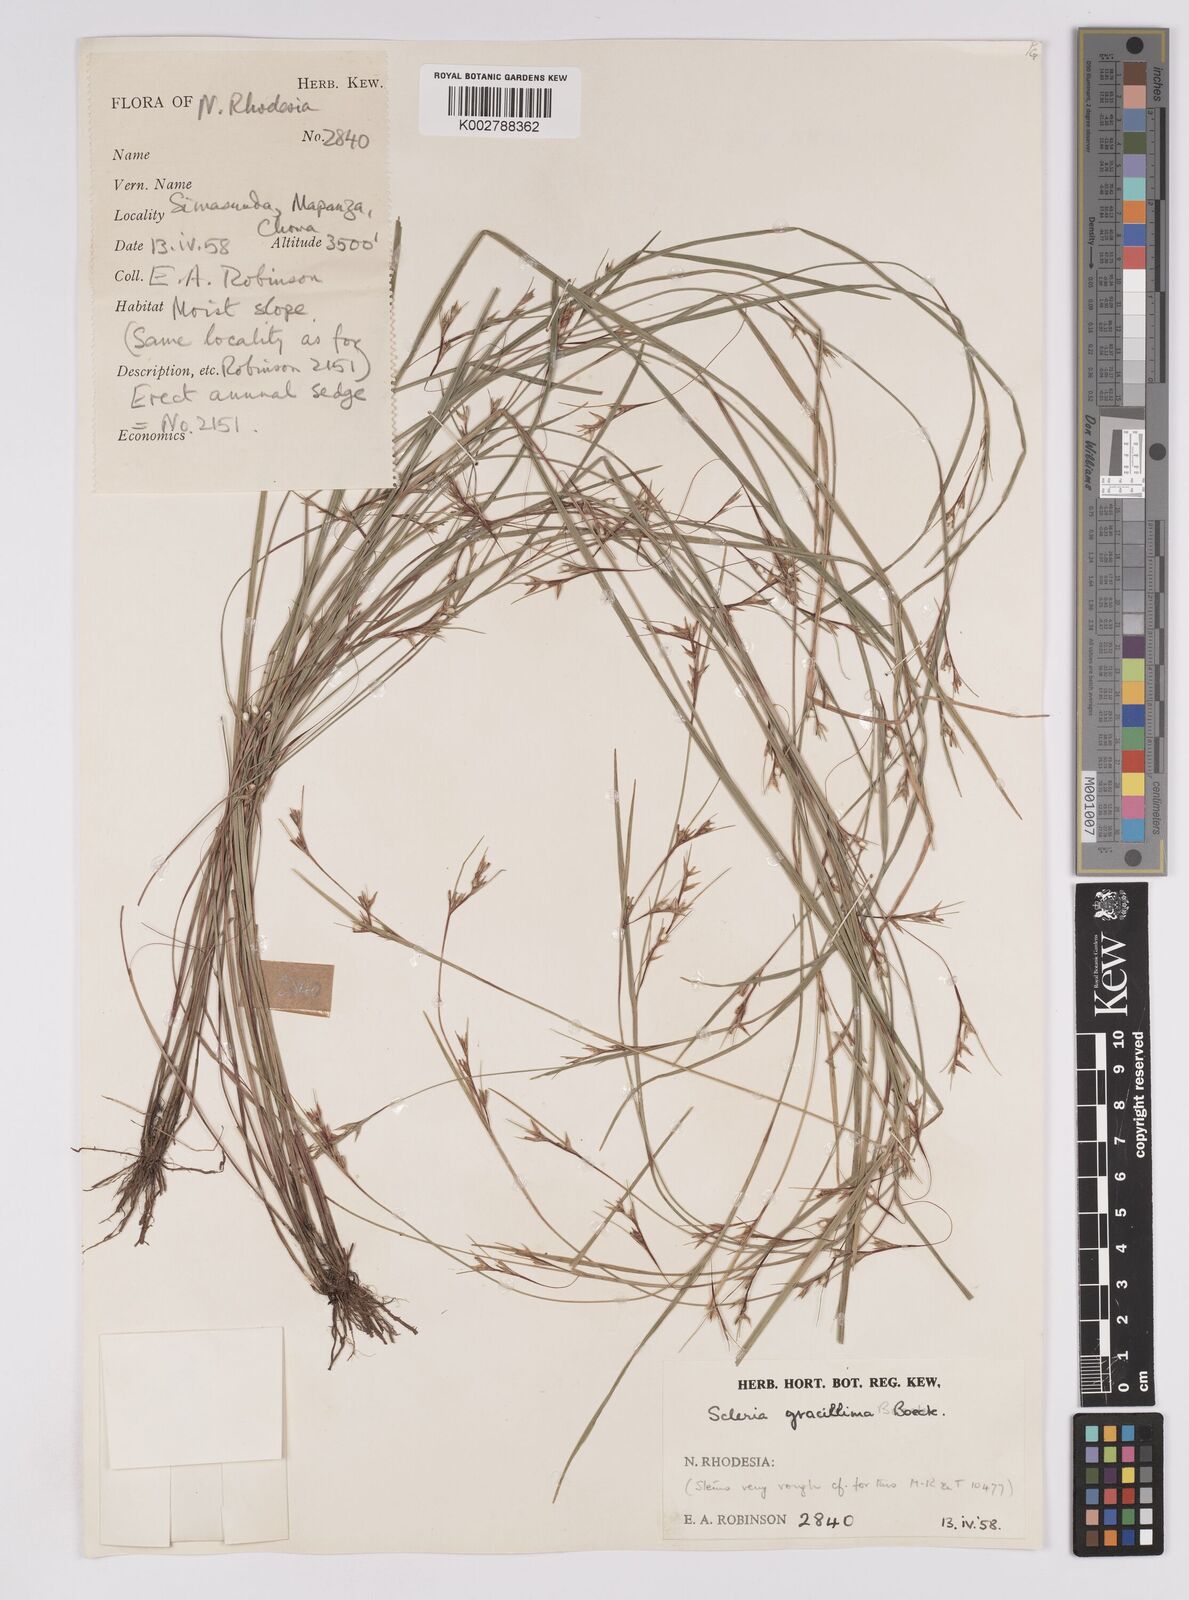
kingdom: Plantae
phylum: Tracheophyta
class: Liliopsida
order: Poales
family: Cyperaceae
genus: Scleria
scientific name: Scleria gracillima
